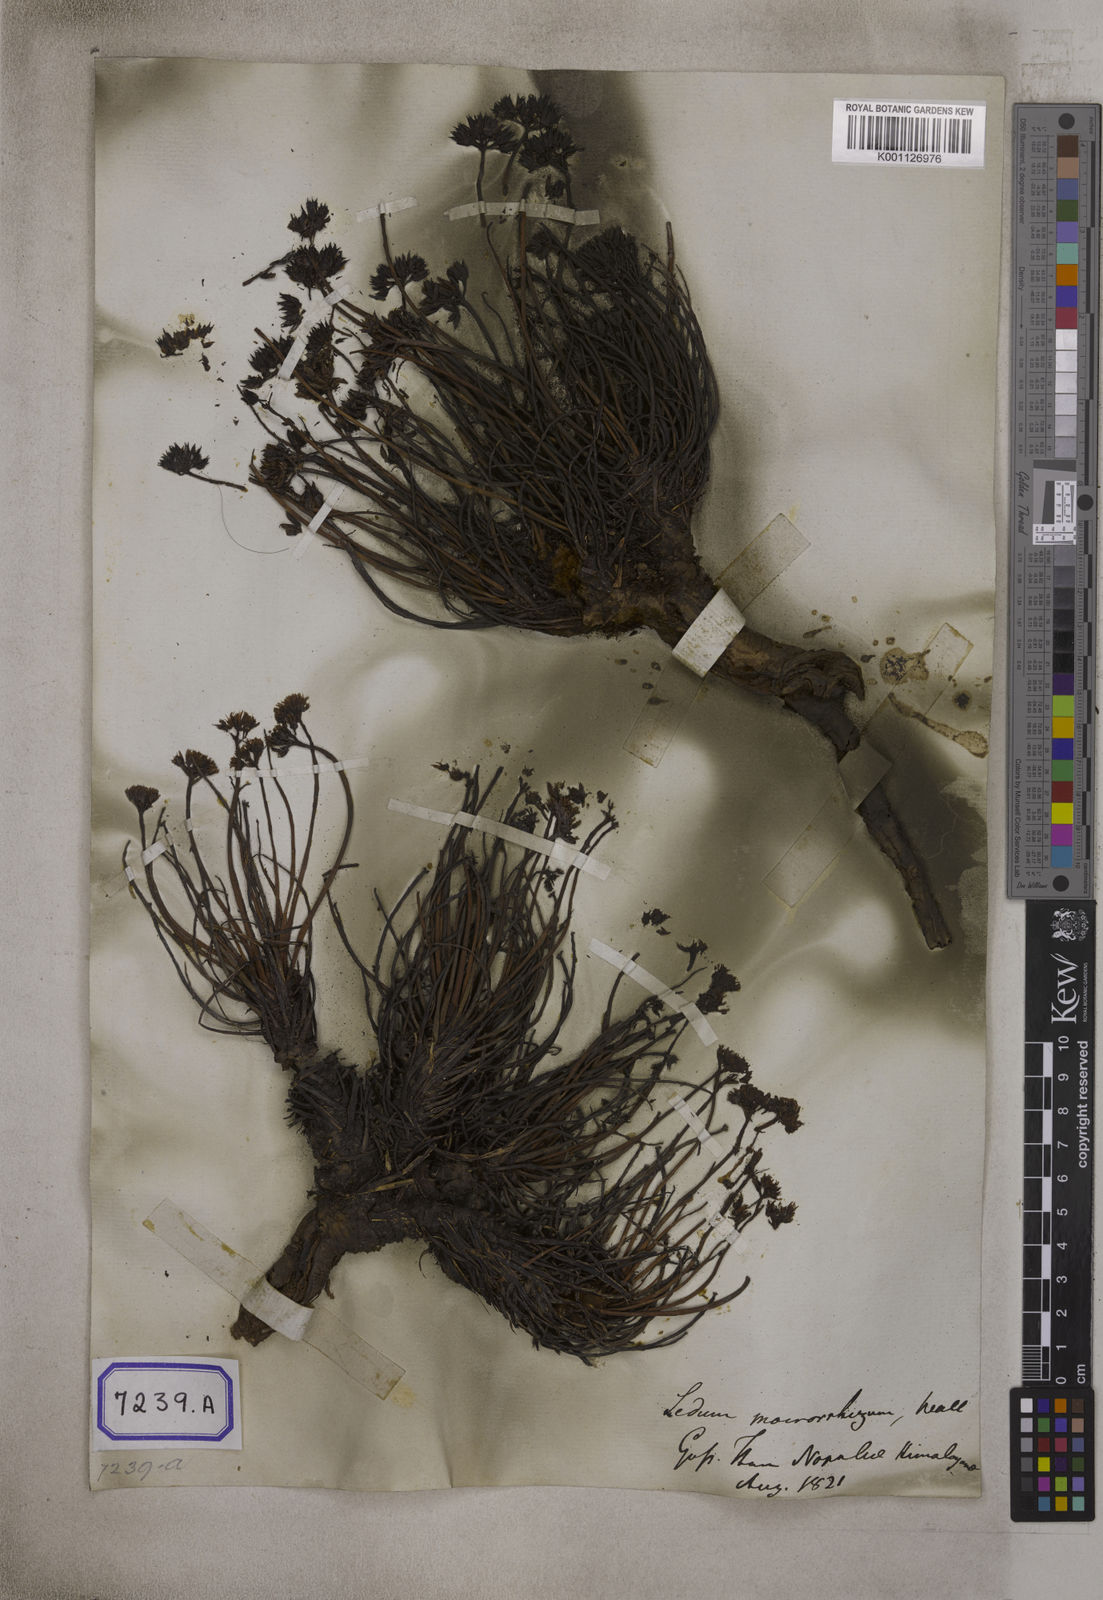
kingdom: Plantae
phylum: Tracheophyta
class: Magnoliopsida
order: Saxifragales
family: Crassulaceae
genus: Sedum
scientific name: Sedum
